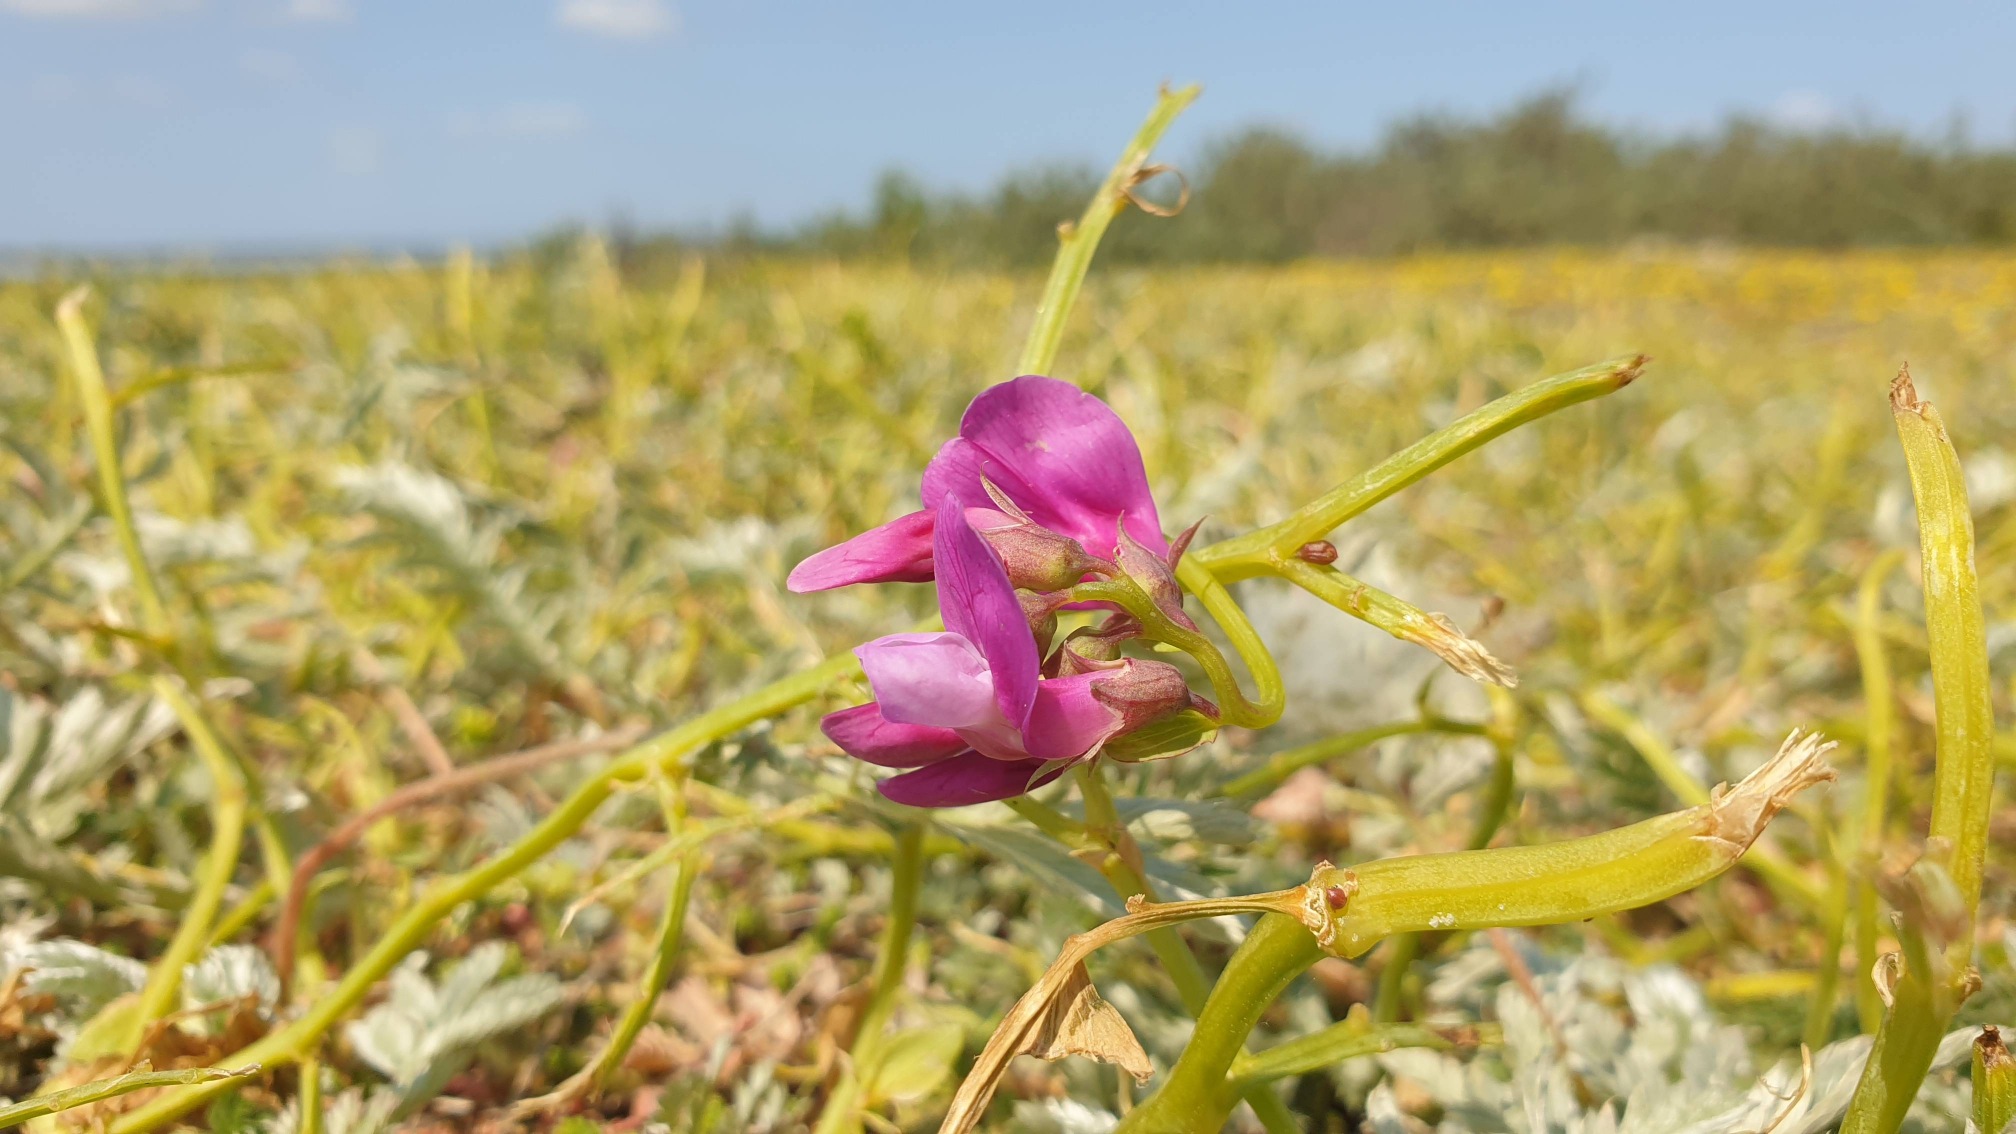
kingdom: Plantae
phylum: Tracheophyta
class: Magnoliopsida
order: Fabales
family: Fabaceae
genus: Lathyrus
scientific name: Lathyrus japonicus
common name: Strand-fladbælg
